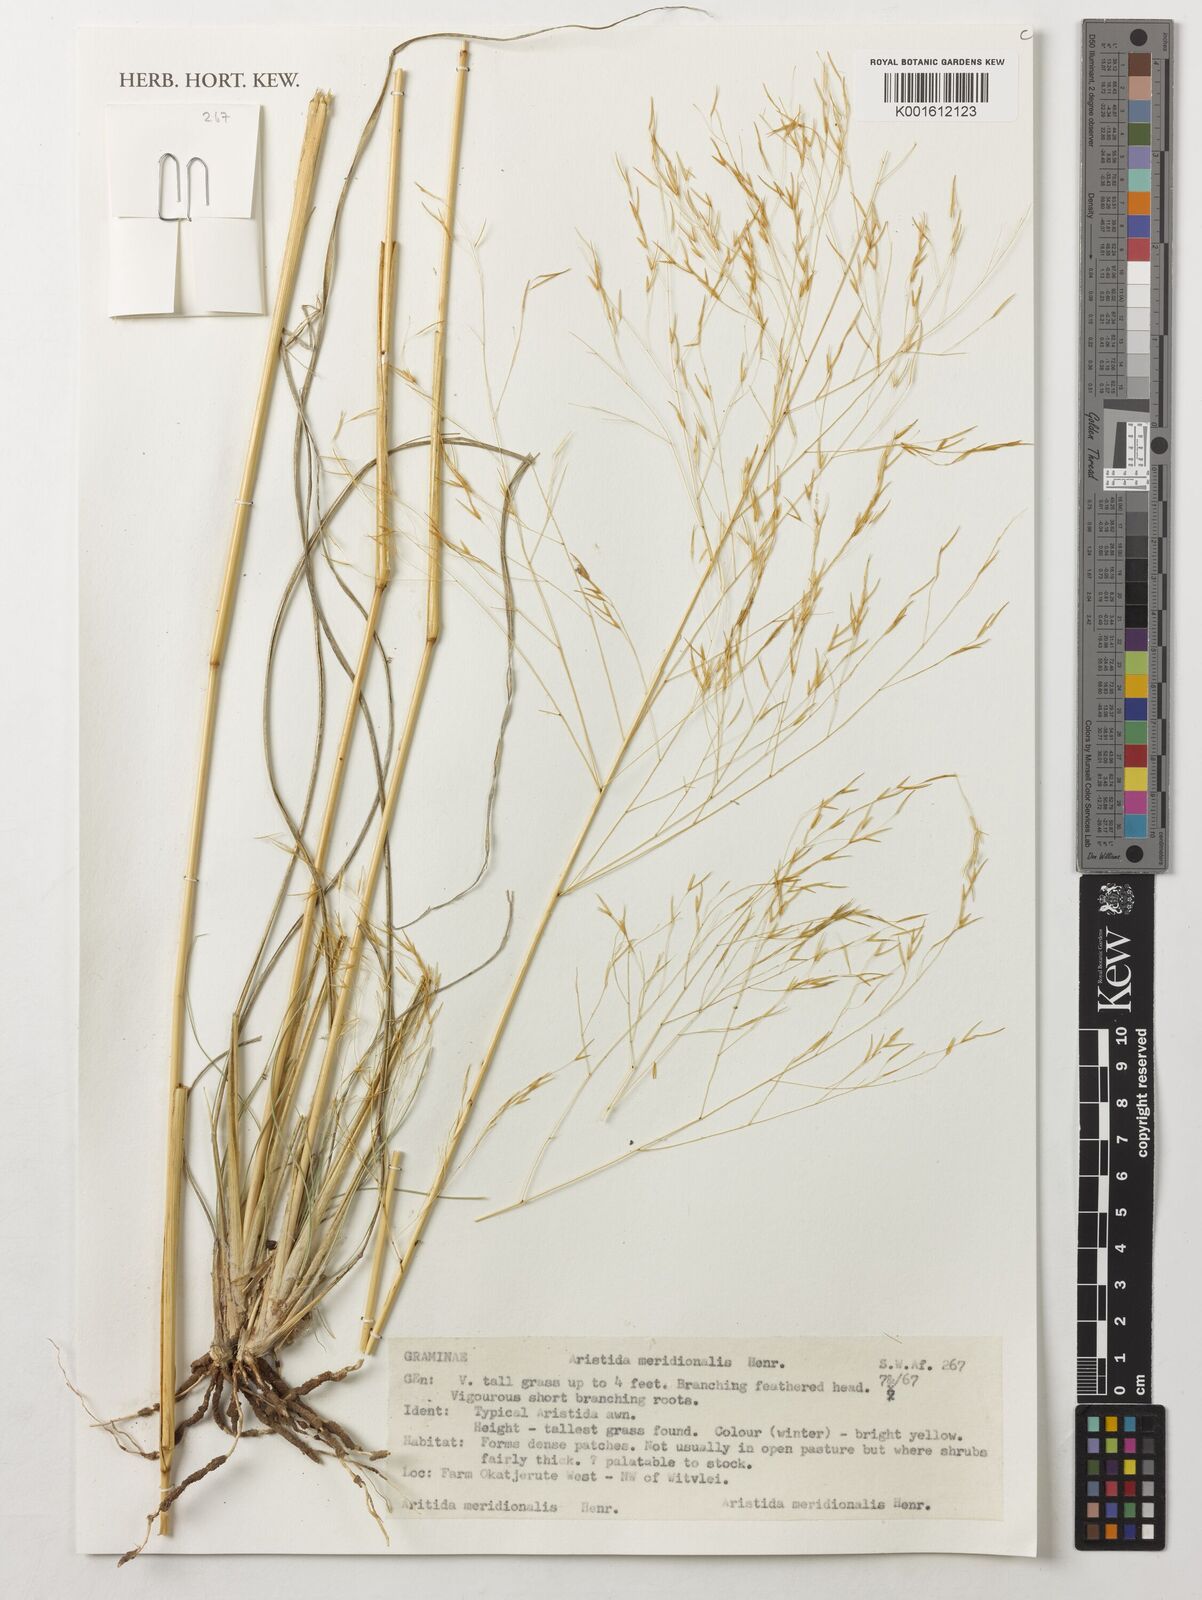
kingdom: Plantae
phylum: Tracheophyta
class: Liliopsida
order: Poales
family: Poaceae
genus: Aristida
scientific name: Aristida meridionalis
